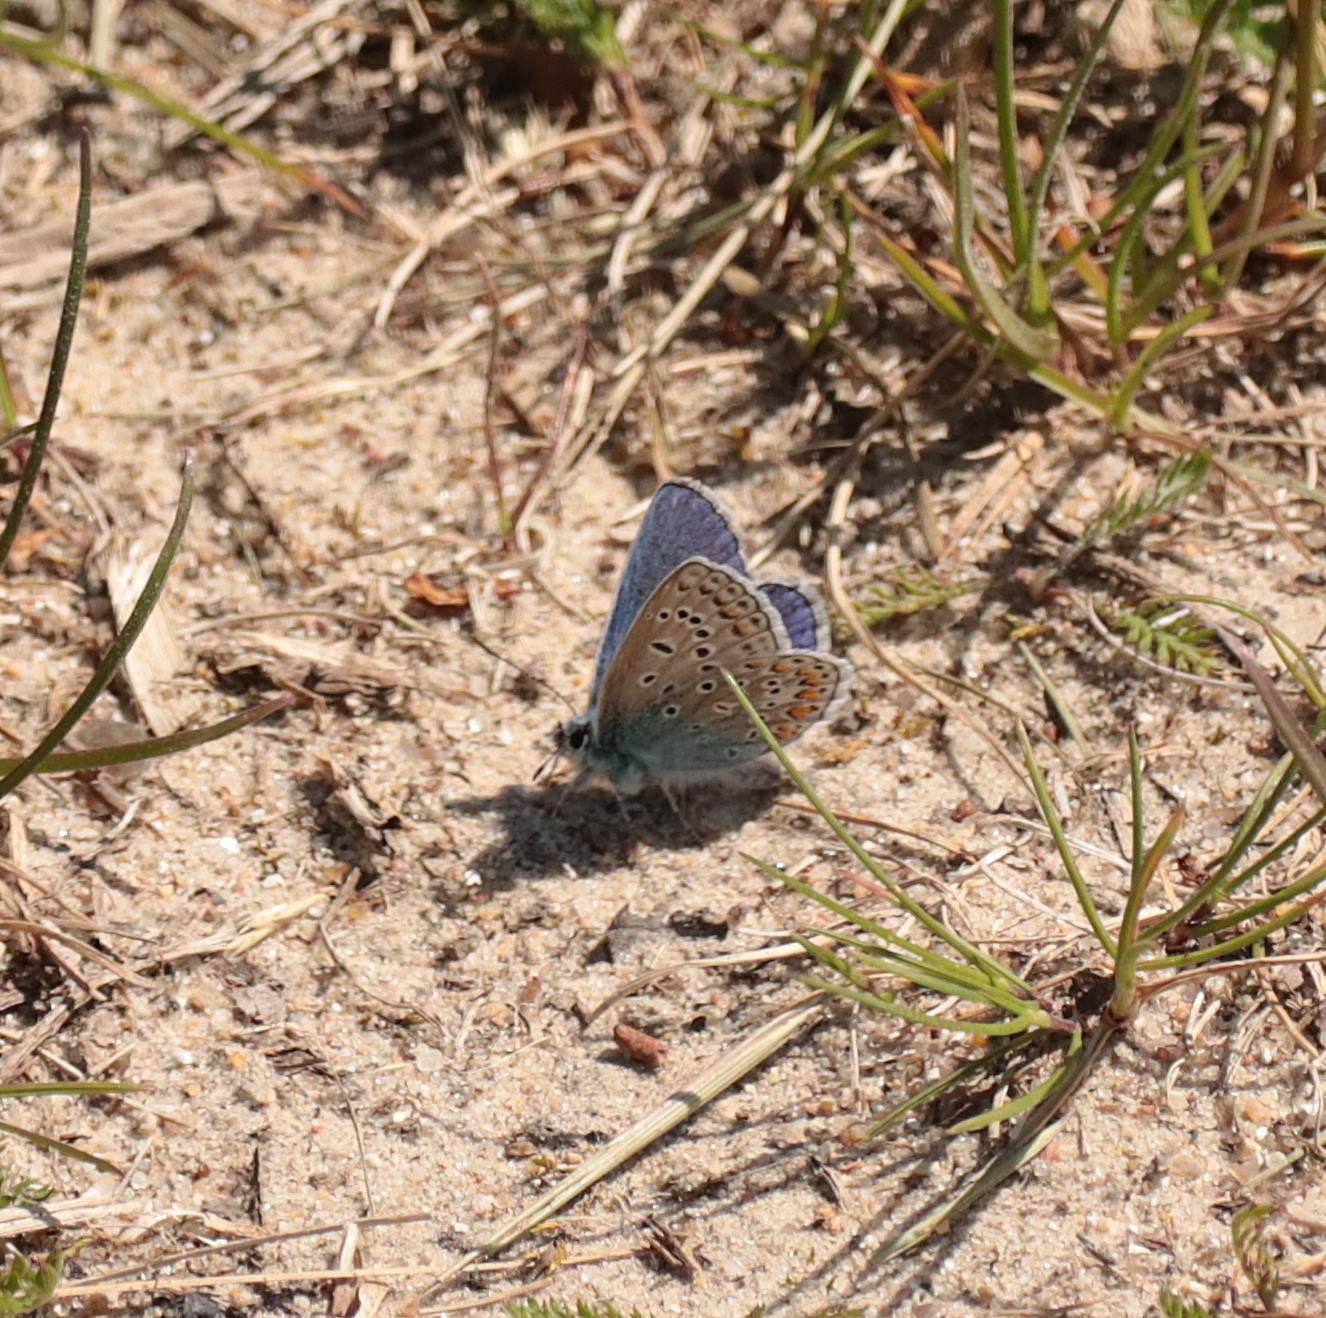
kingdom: Animalia
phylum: Arthropoda
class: Insecta
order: Lepidoptera
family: Lycaenidae
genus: Polyommatus
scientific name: Polyommatus icarus
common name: Almindelig blåfugl
